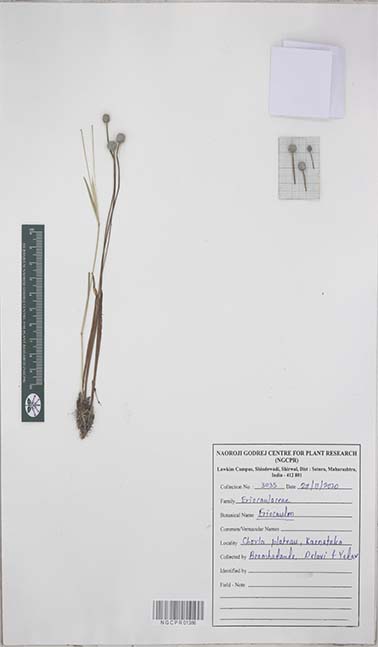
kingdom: Plantae
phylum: Tracheophyta
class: Liliopsida
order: Poales
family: Eriocaulaceae
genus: Eriocaulon
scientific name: Eriocaulon
